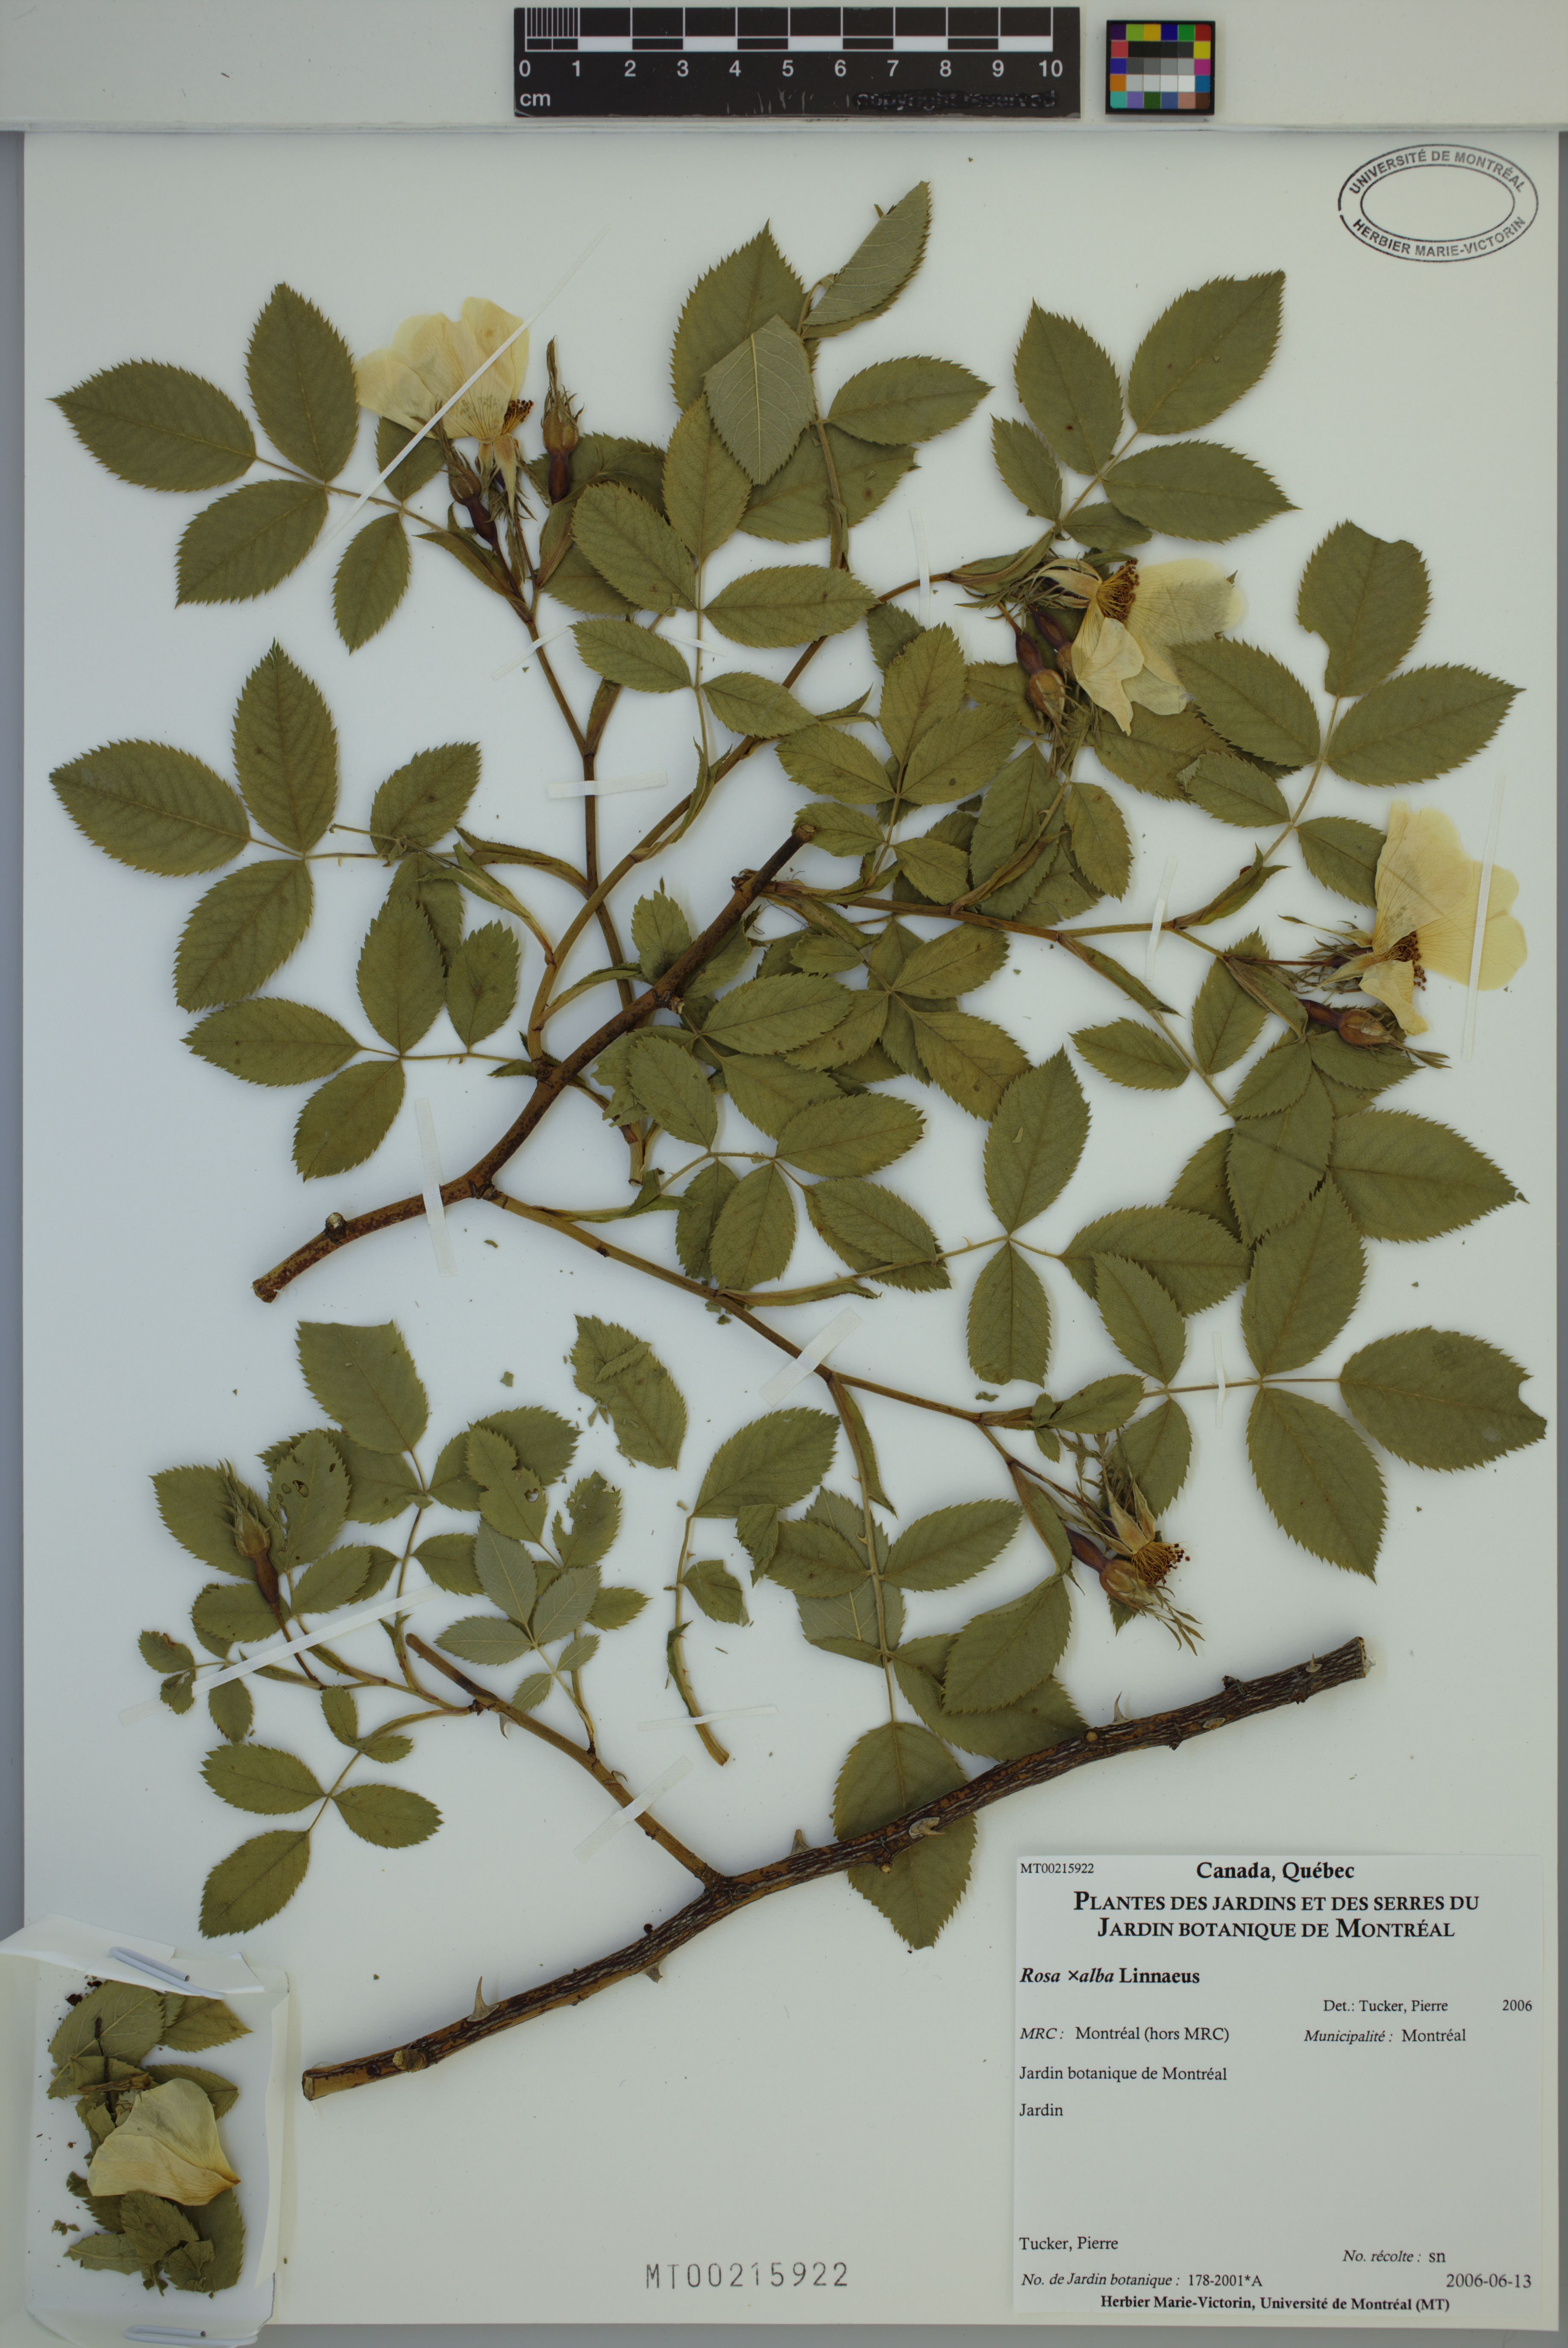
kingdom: Plantae
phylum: Tracheophyta
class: Magnoliopsida
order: Rosales
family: Rosaceae
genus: Rosa
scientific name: Rosa alba
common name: White rose
